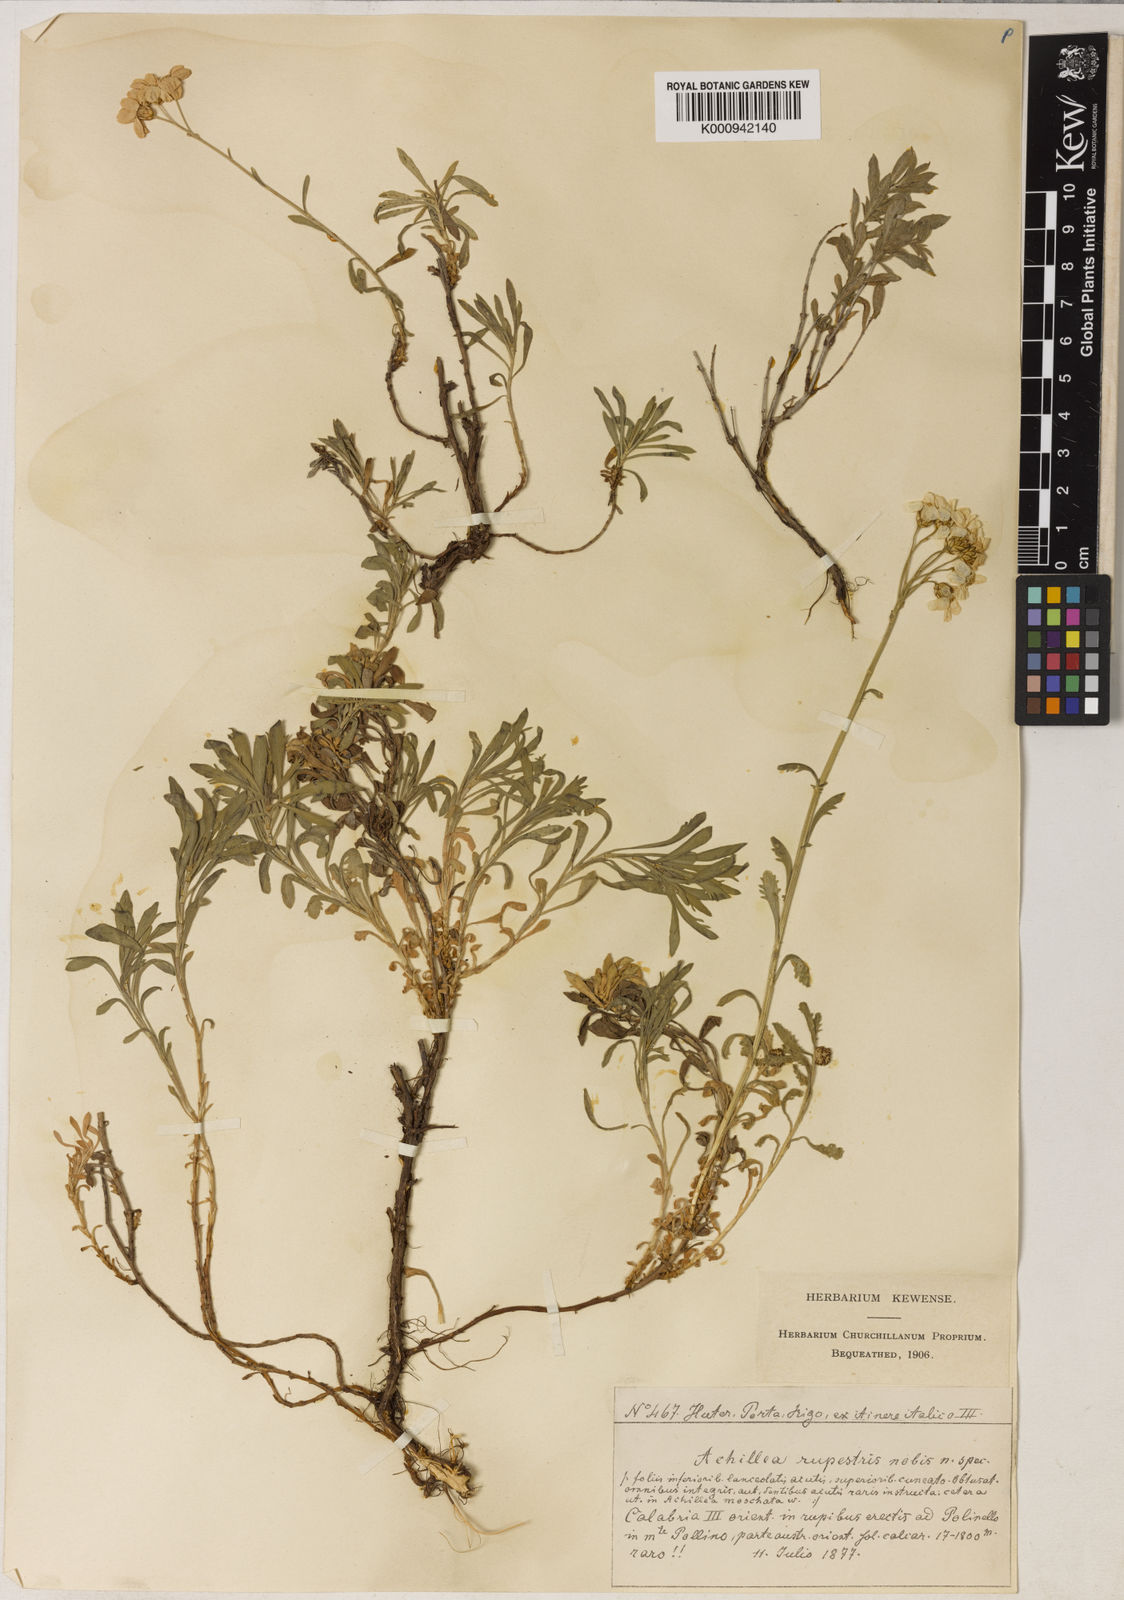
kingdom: Plantae
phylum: Tracheophyta
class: Magnoliopsida
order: Asterales
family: Asteraceae
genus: Achillea
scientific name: Achillea erba-rotta
